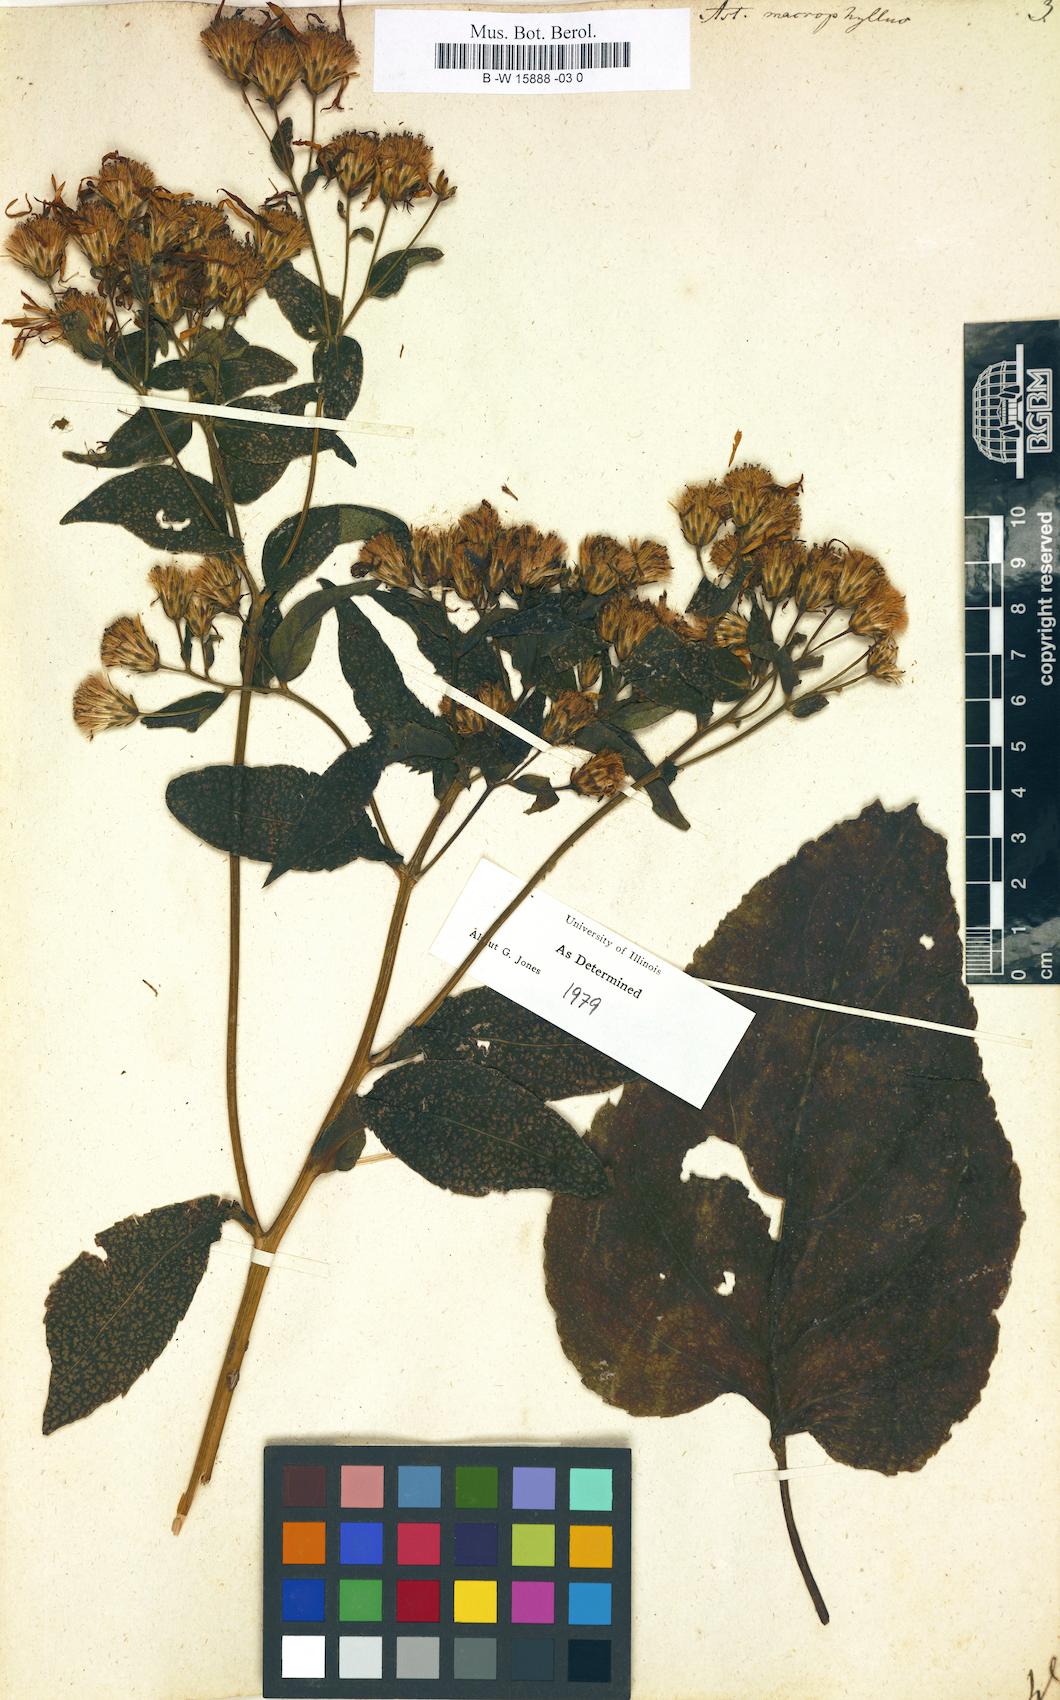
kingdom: Plantae
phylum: Tracheophyta
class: Magnoliopsida
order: Asterales
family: Asteraceae
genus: Eurybia
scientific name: Eurybia macrophylla
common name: Big-leaved aster
